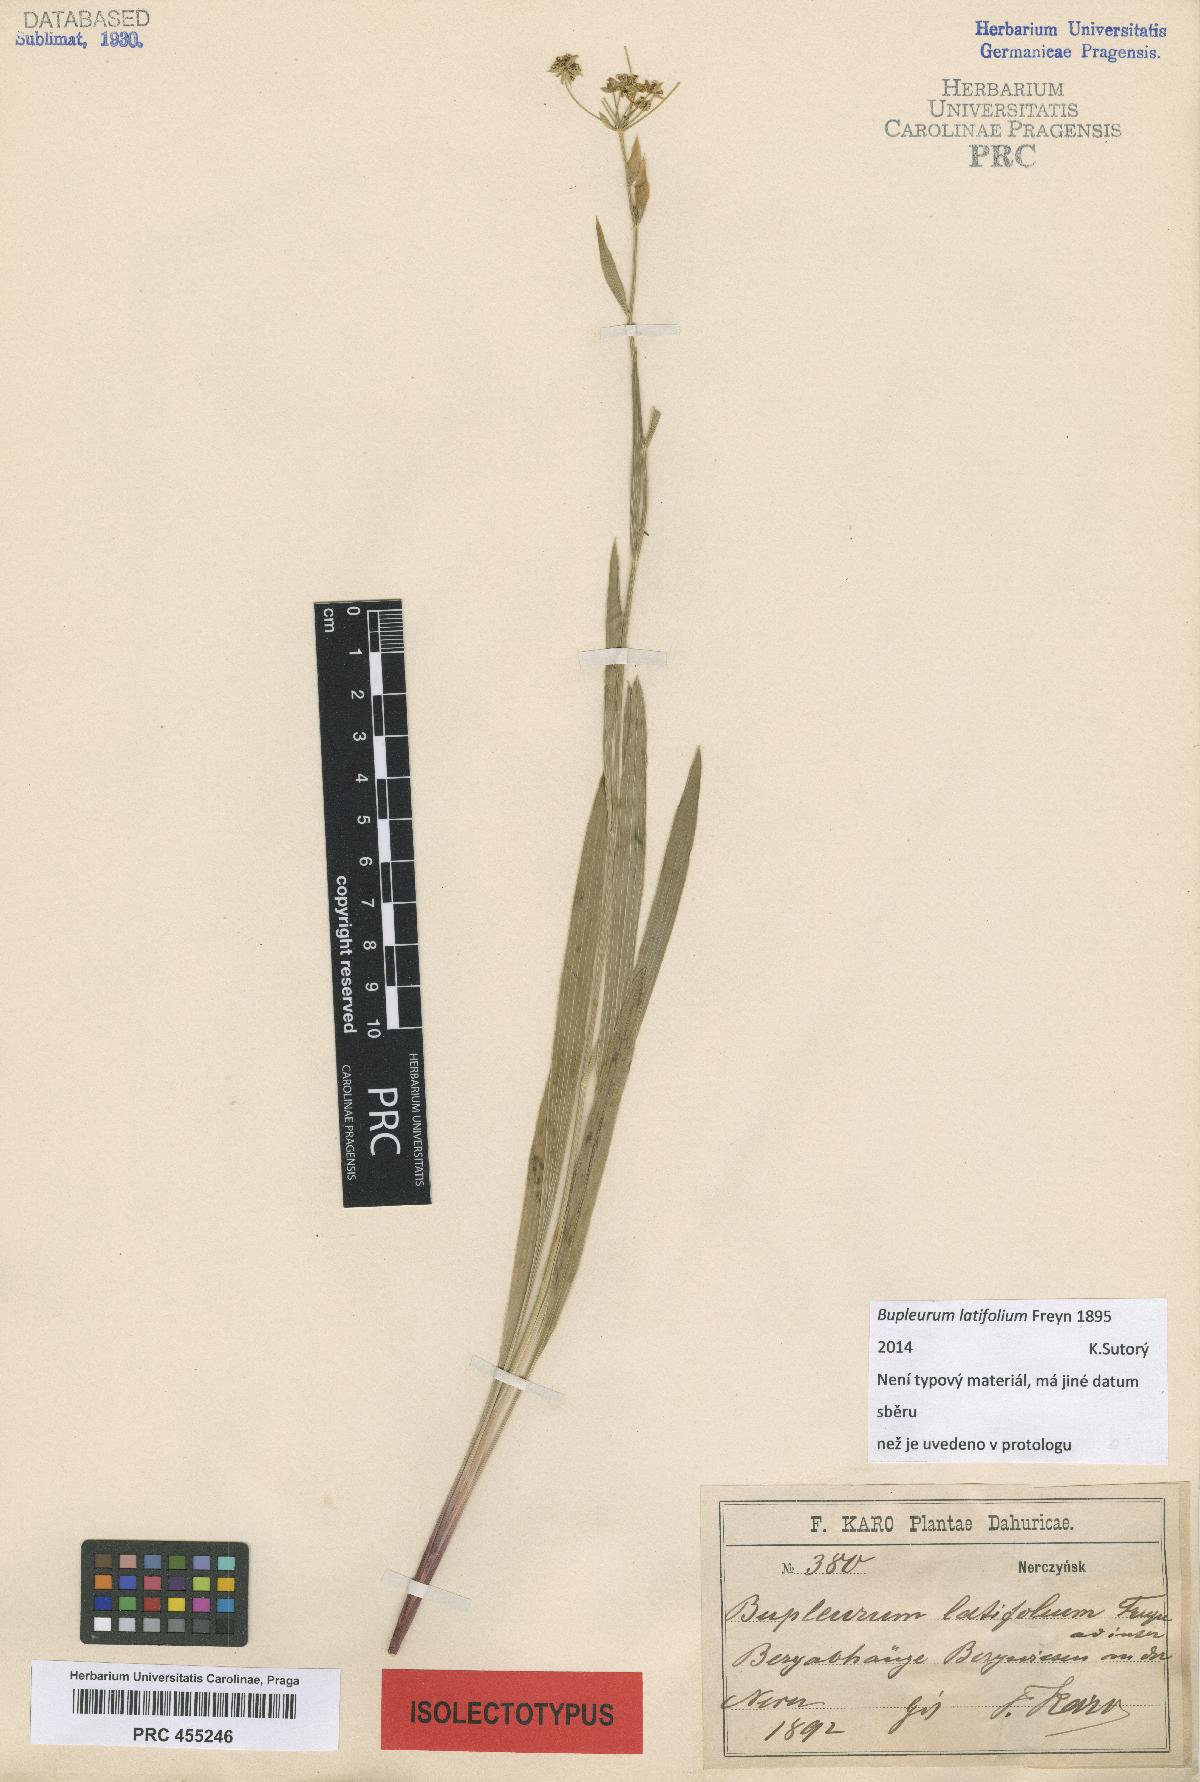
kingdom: Plantae
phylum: Tracheophyta
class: Magnoliopsida
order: Apiales
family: Apiaceae
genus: Bupleurum
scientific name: Bupleurum sibiricum
